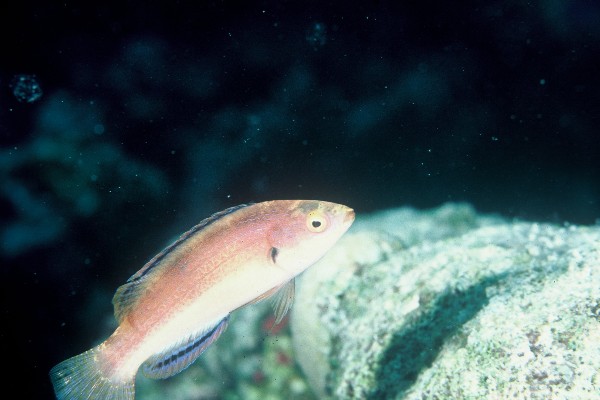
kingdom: Animalia
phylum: Chordata
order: Perciformes
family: Labridae
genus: Cirrhilabrus
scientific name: Cirrhilabrus balteatus
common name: Girdled wrasse
